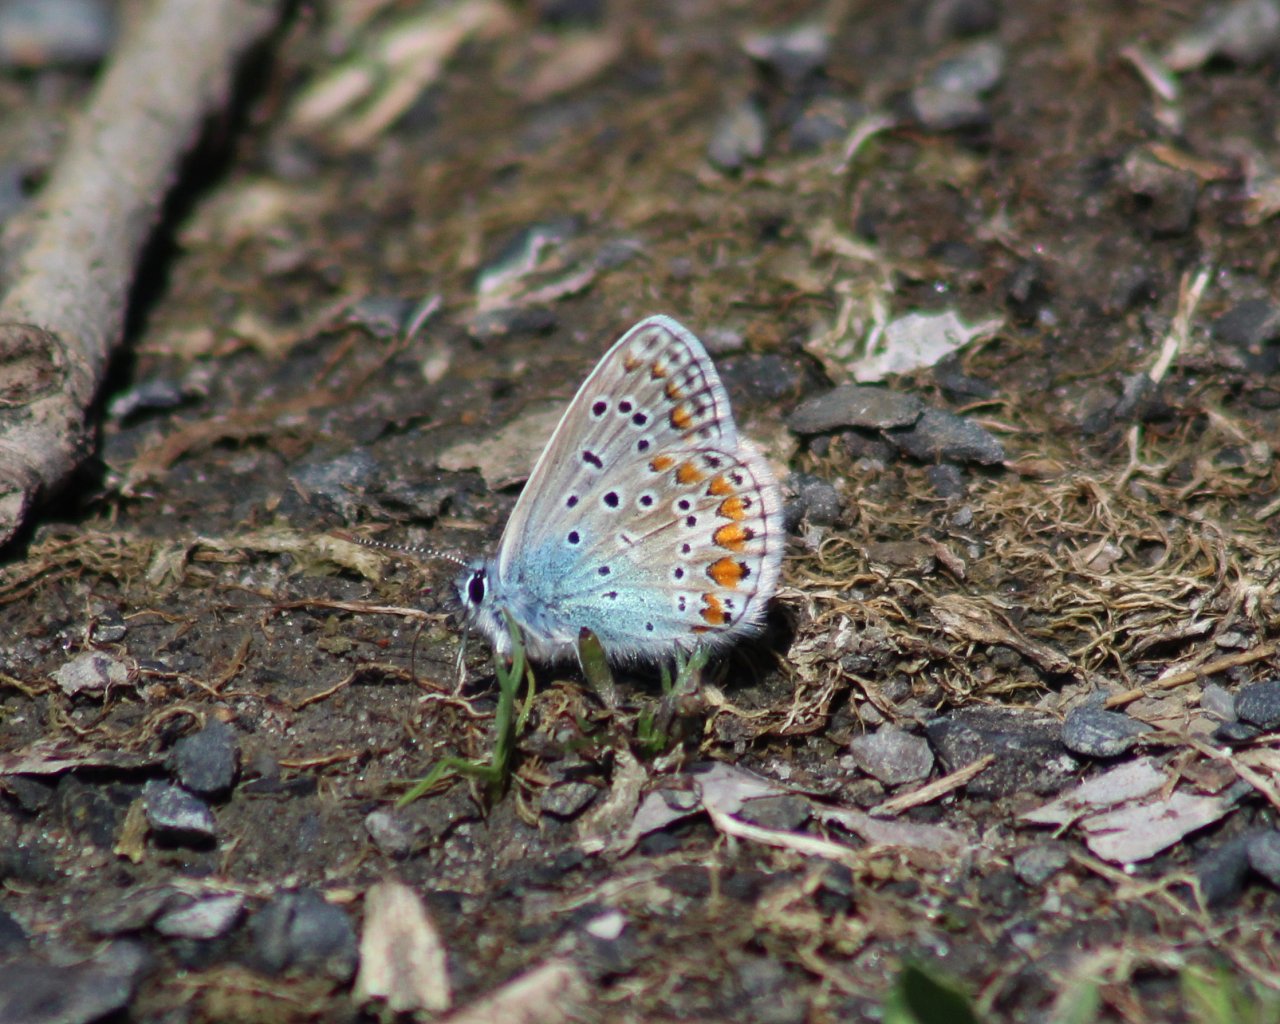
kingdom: Animalia
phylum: Arthropoda
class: Insecta
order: Lepidoptera
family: Lycaenidae
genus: Polyommatus
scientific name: Polyommatus icarus
